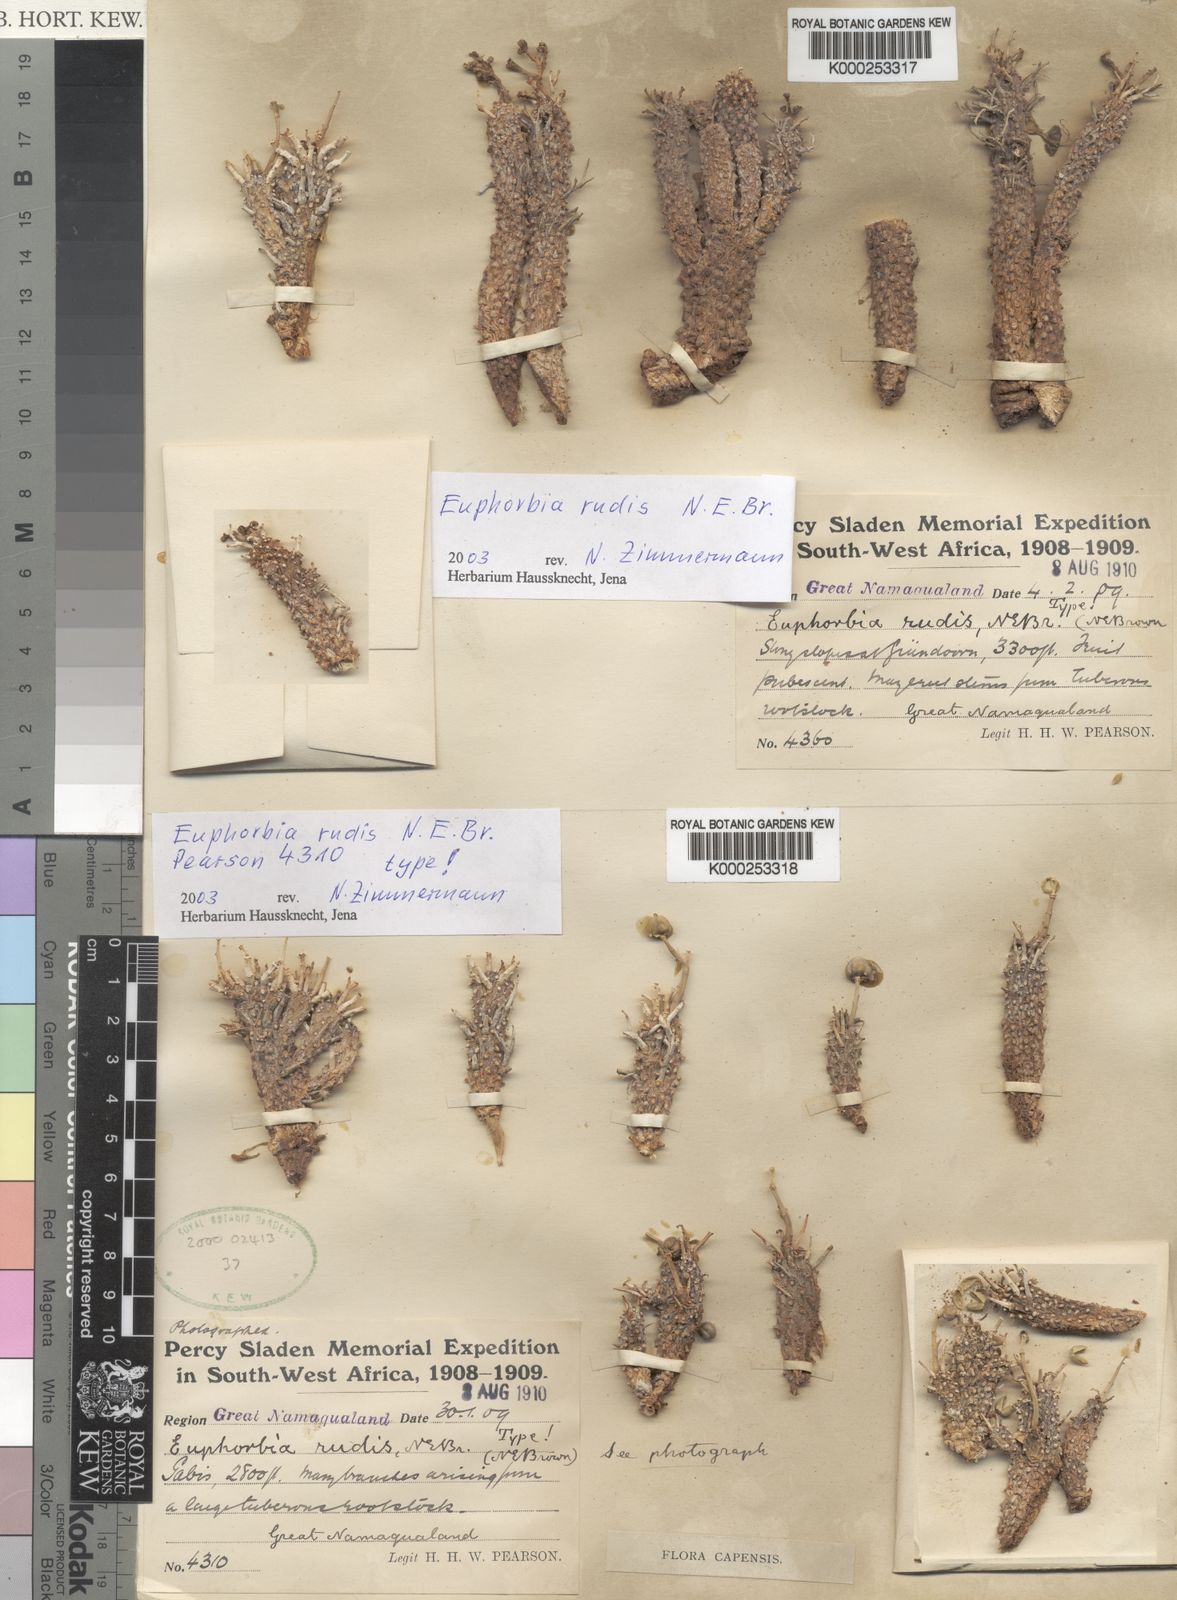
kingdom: Plantae
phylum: Tracheophyta
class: Magnoliopsida
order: Malpighiales
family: Euphorbiaceae
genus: Euphorbia
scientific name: Euphorbia braunsii
